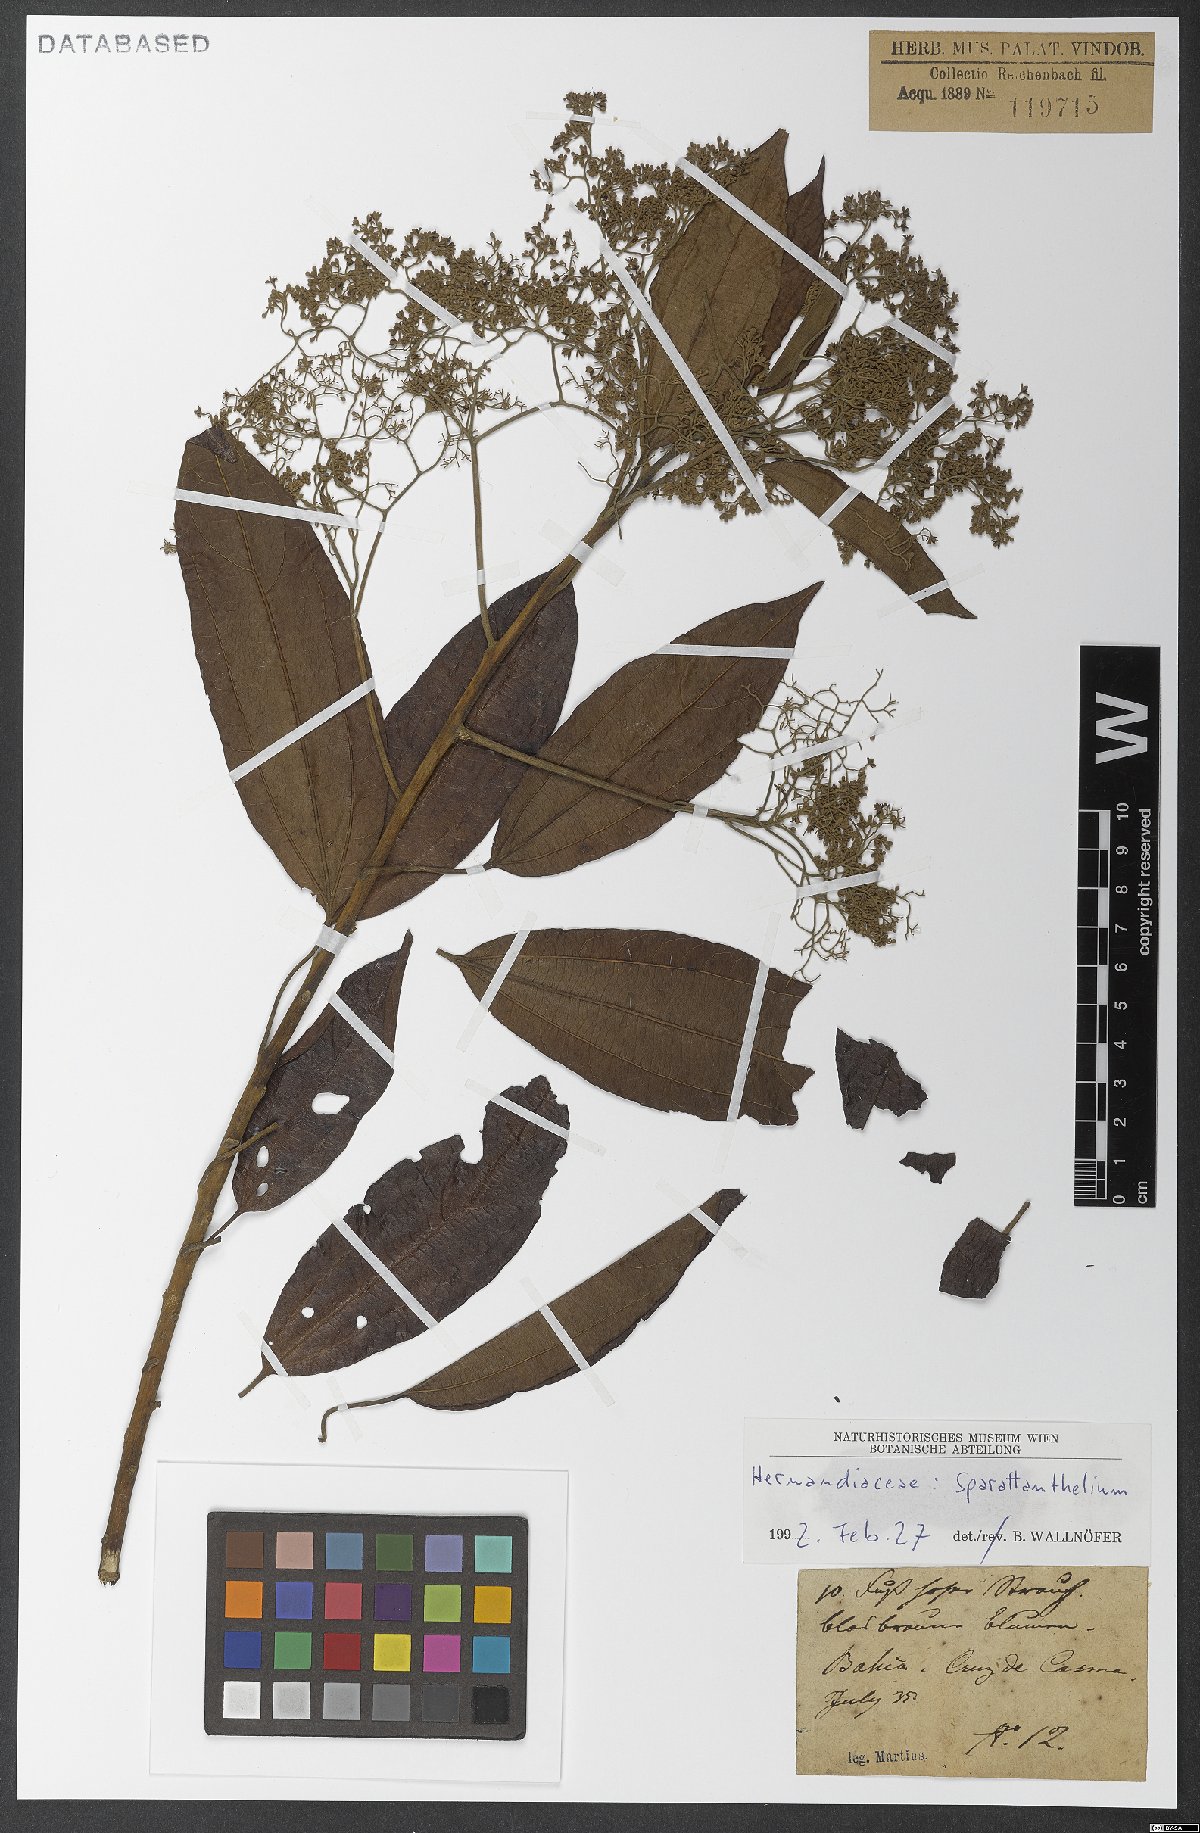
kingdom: Plantae
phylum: Tracheophyta
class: Magnoliopsida
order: Laurales
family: Hernandiaceae
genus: Sparattanthelium
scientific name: Sparattanthelium
